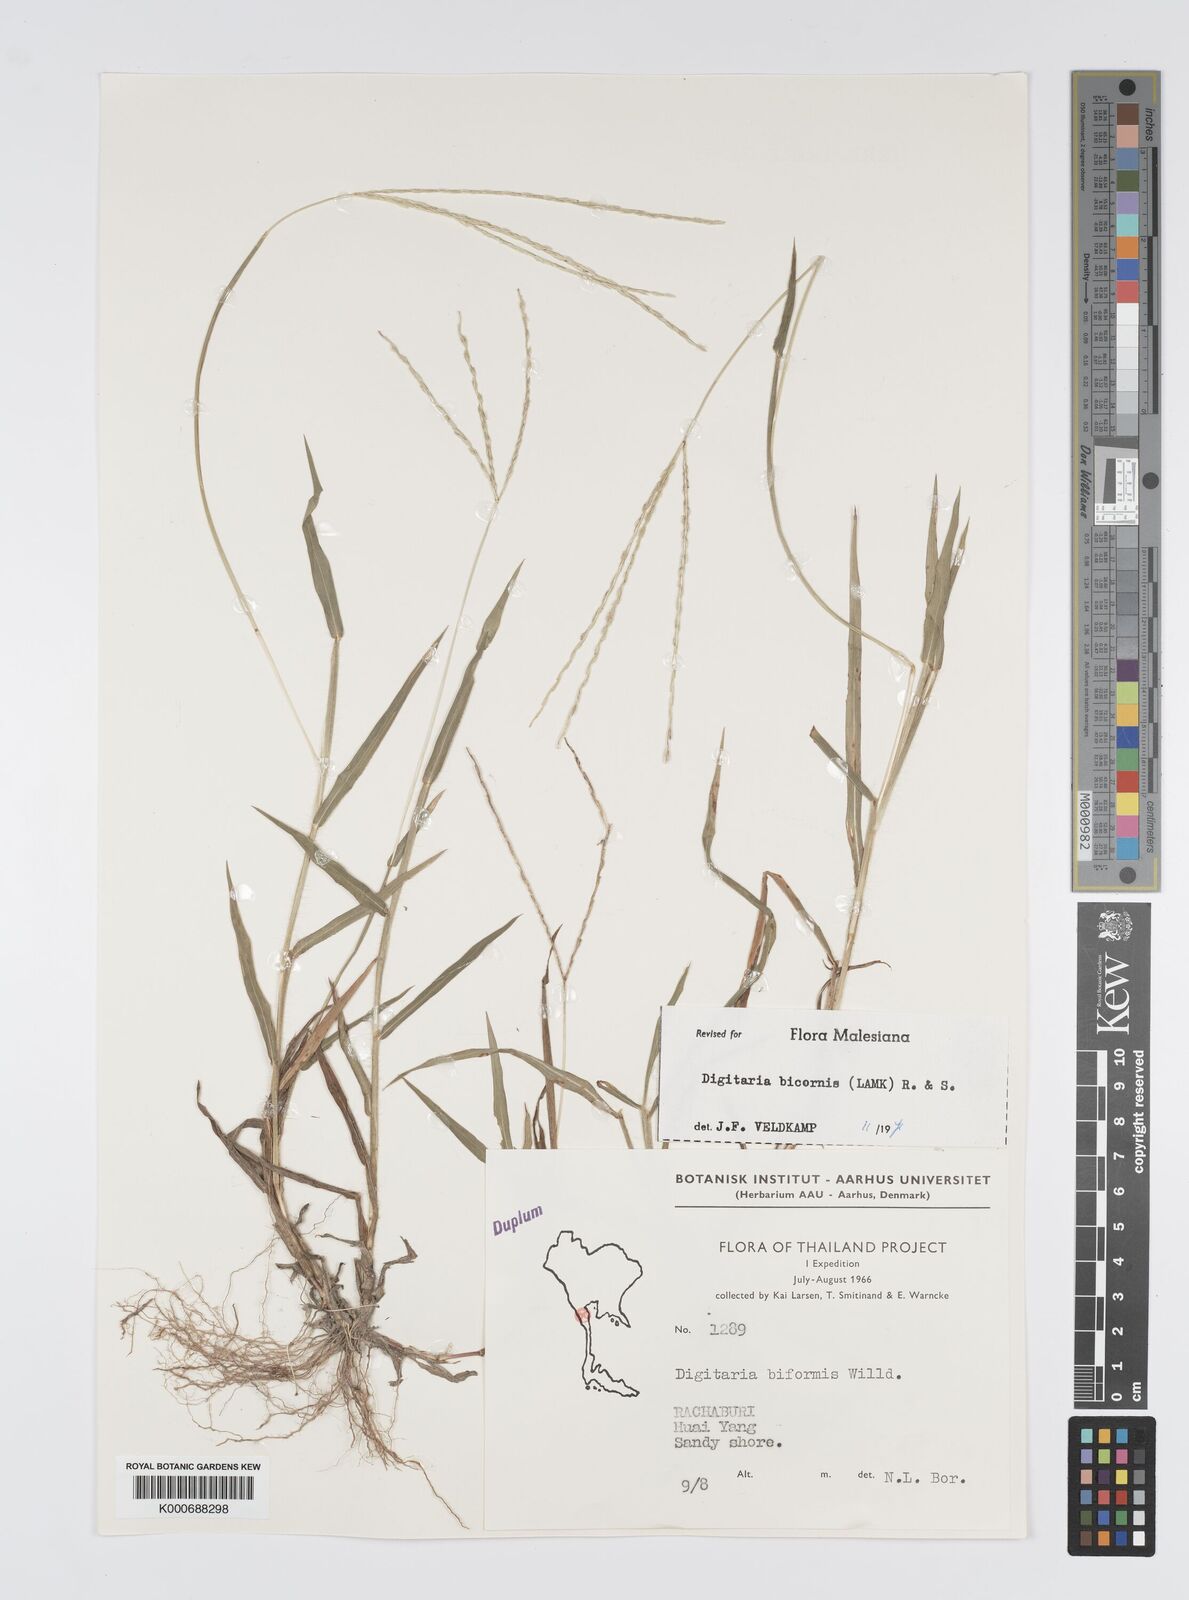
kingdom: Plantae
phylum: Tracheophyta
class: Liliopsida
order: Poales
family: Poaceae
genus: Digitaria
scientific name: Digitaria bicornis
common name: Asian crabgrass
